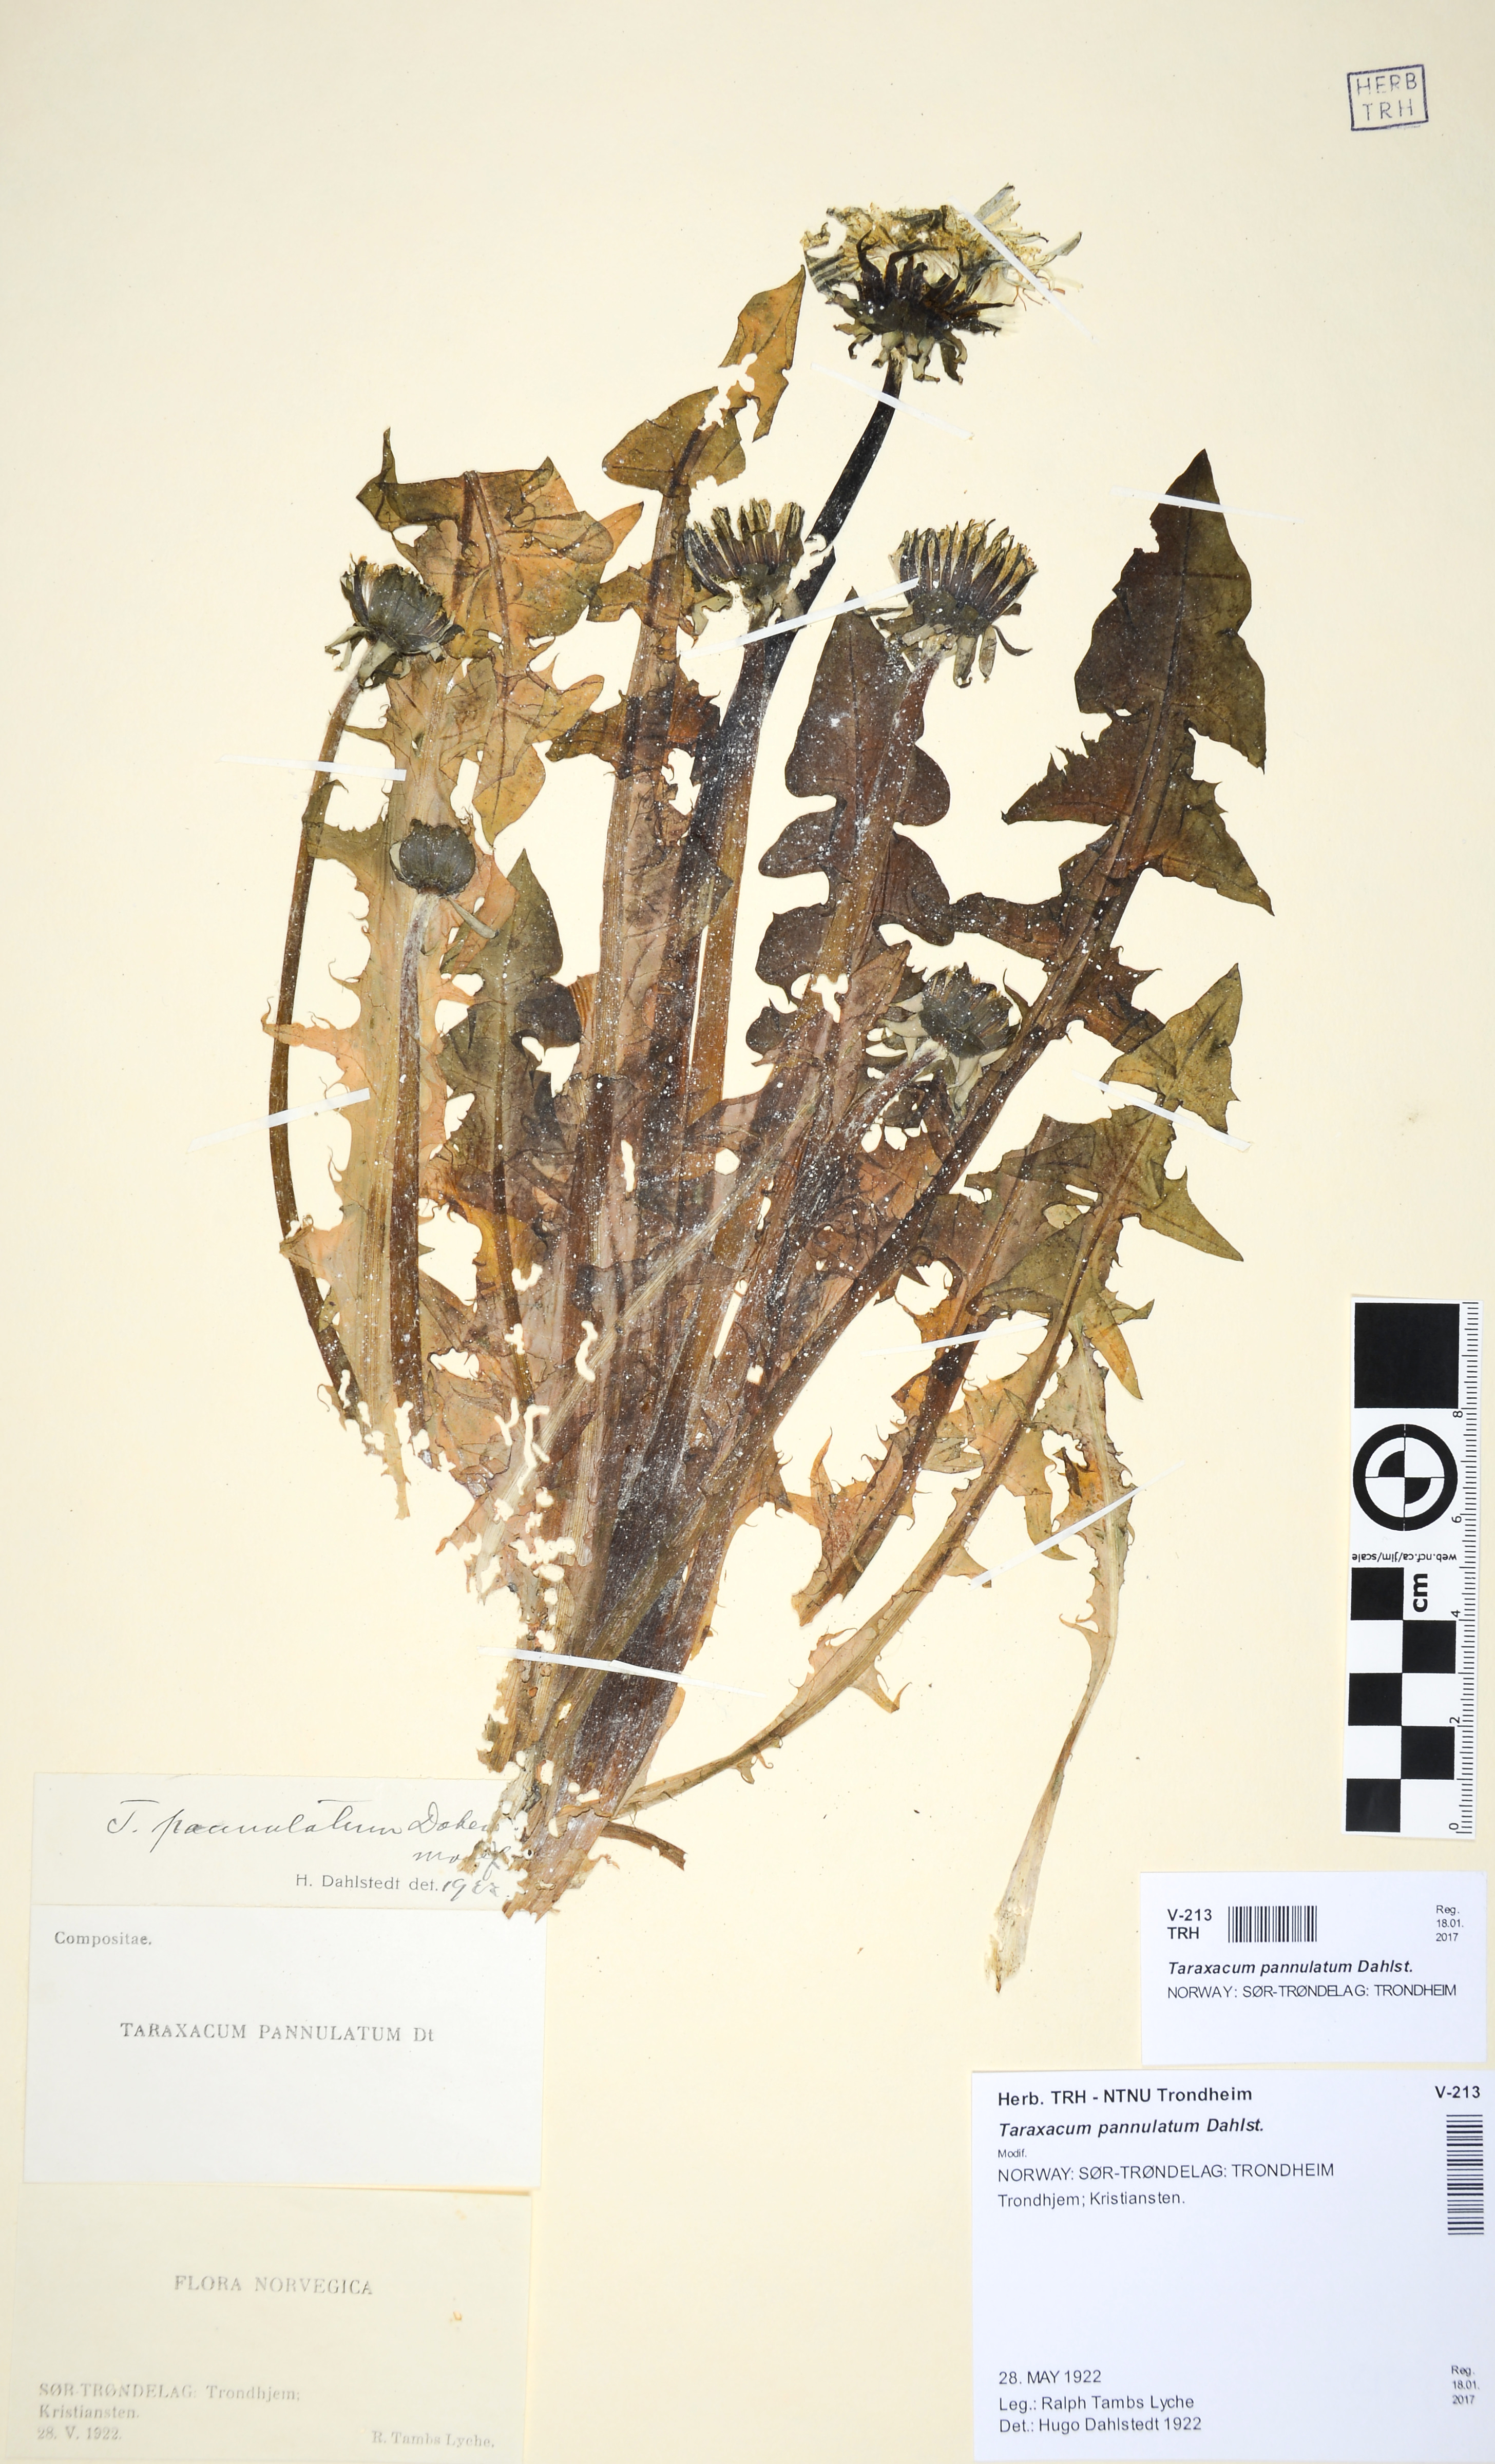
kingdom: Plantae
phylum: Tracheophyta
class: Magnoliopsida
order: Asterales
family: Asteraceae
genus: Taraxacum
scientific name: Taraxacum pannulatum
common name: Brown-ribbed dandelion
